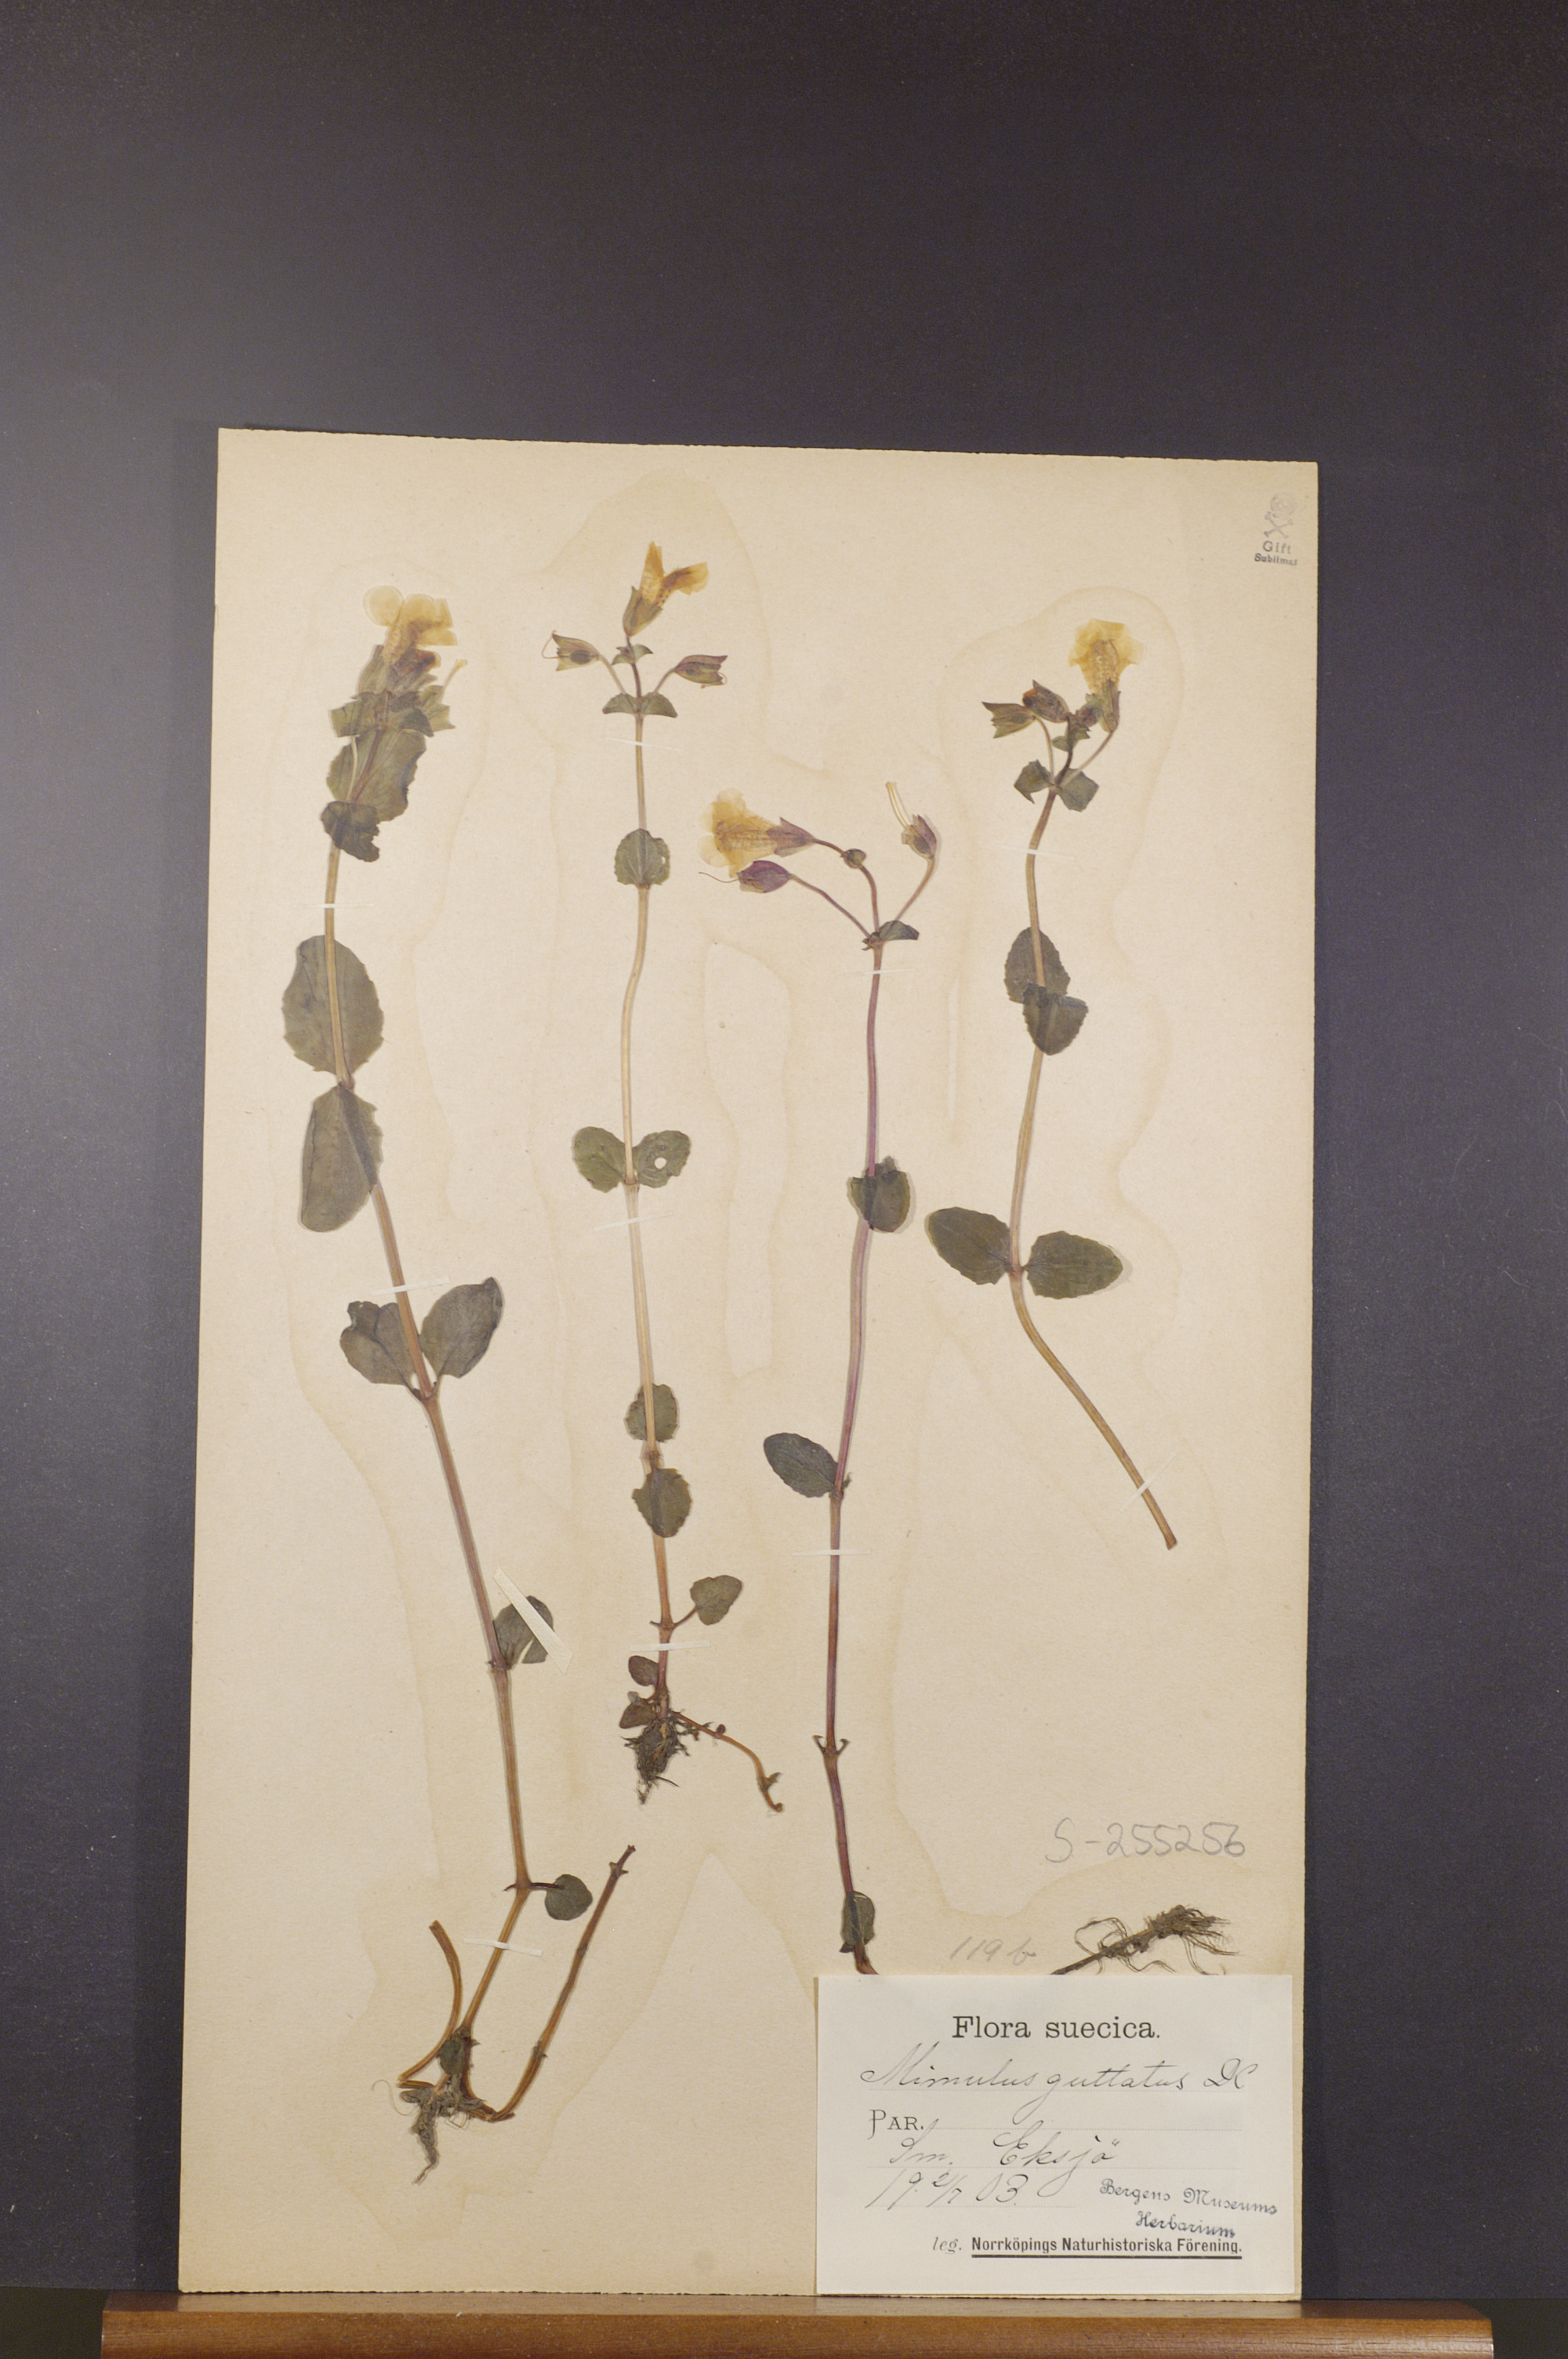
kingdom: Plantae
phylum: Tracheophyta
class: Magnoliopsida
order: Lamiales
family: Phrymaceae
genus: Erythranthe
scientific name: Erythranthe guttata
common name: Monkeyflower
